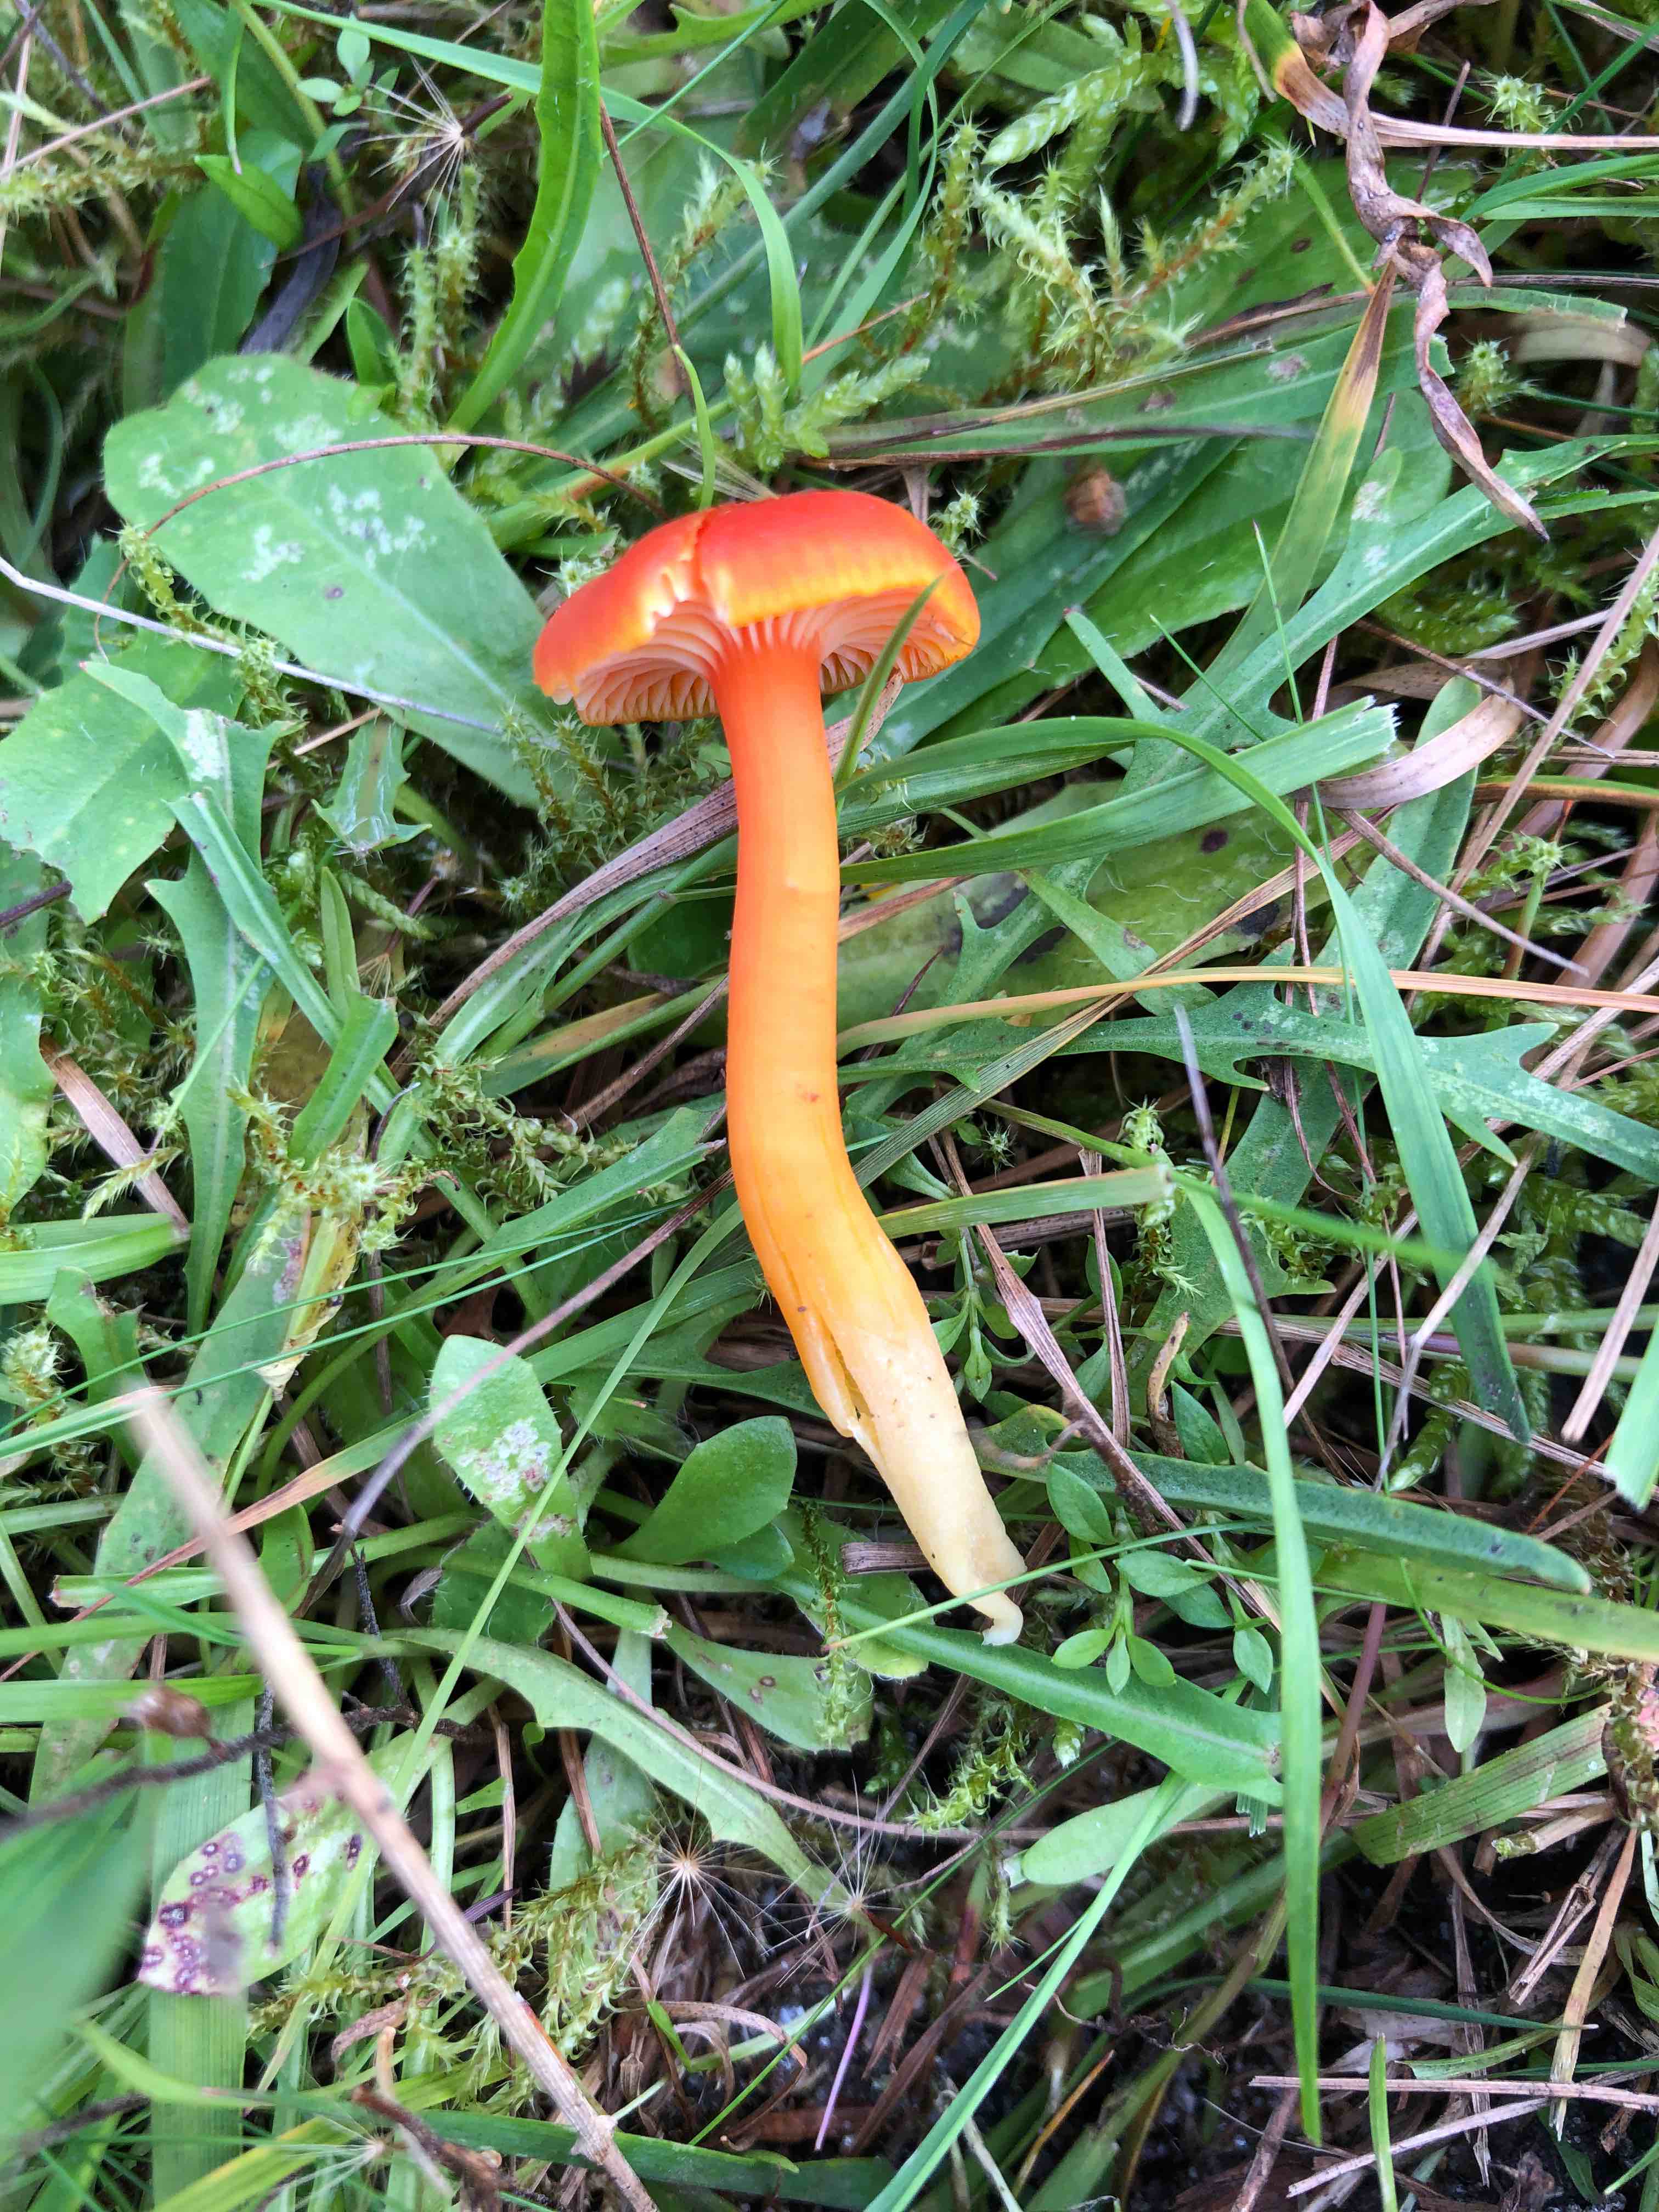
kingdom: Fungi
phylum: Basidiomycota
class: Agaricomycetes
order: Agaricales
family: Hygrophoraceae
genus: Hygrocybe
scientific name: Hygrocybe reidii
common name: honning-vokshat
